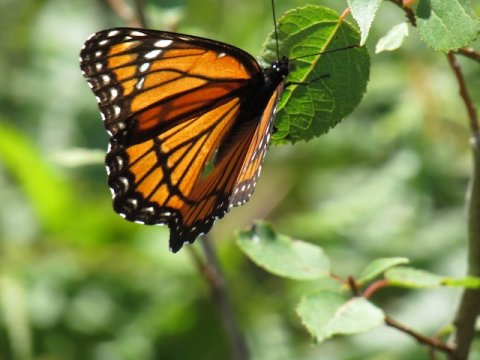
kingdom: Animalia
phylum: Arthropoda
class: Insecta
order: Lepidoptera
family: Nymphalidae
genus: Limenitis
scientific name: Limenitis archippus
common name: Viceroy
